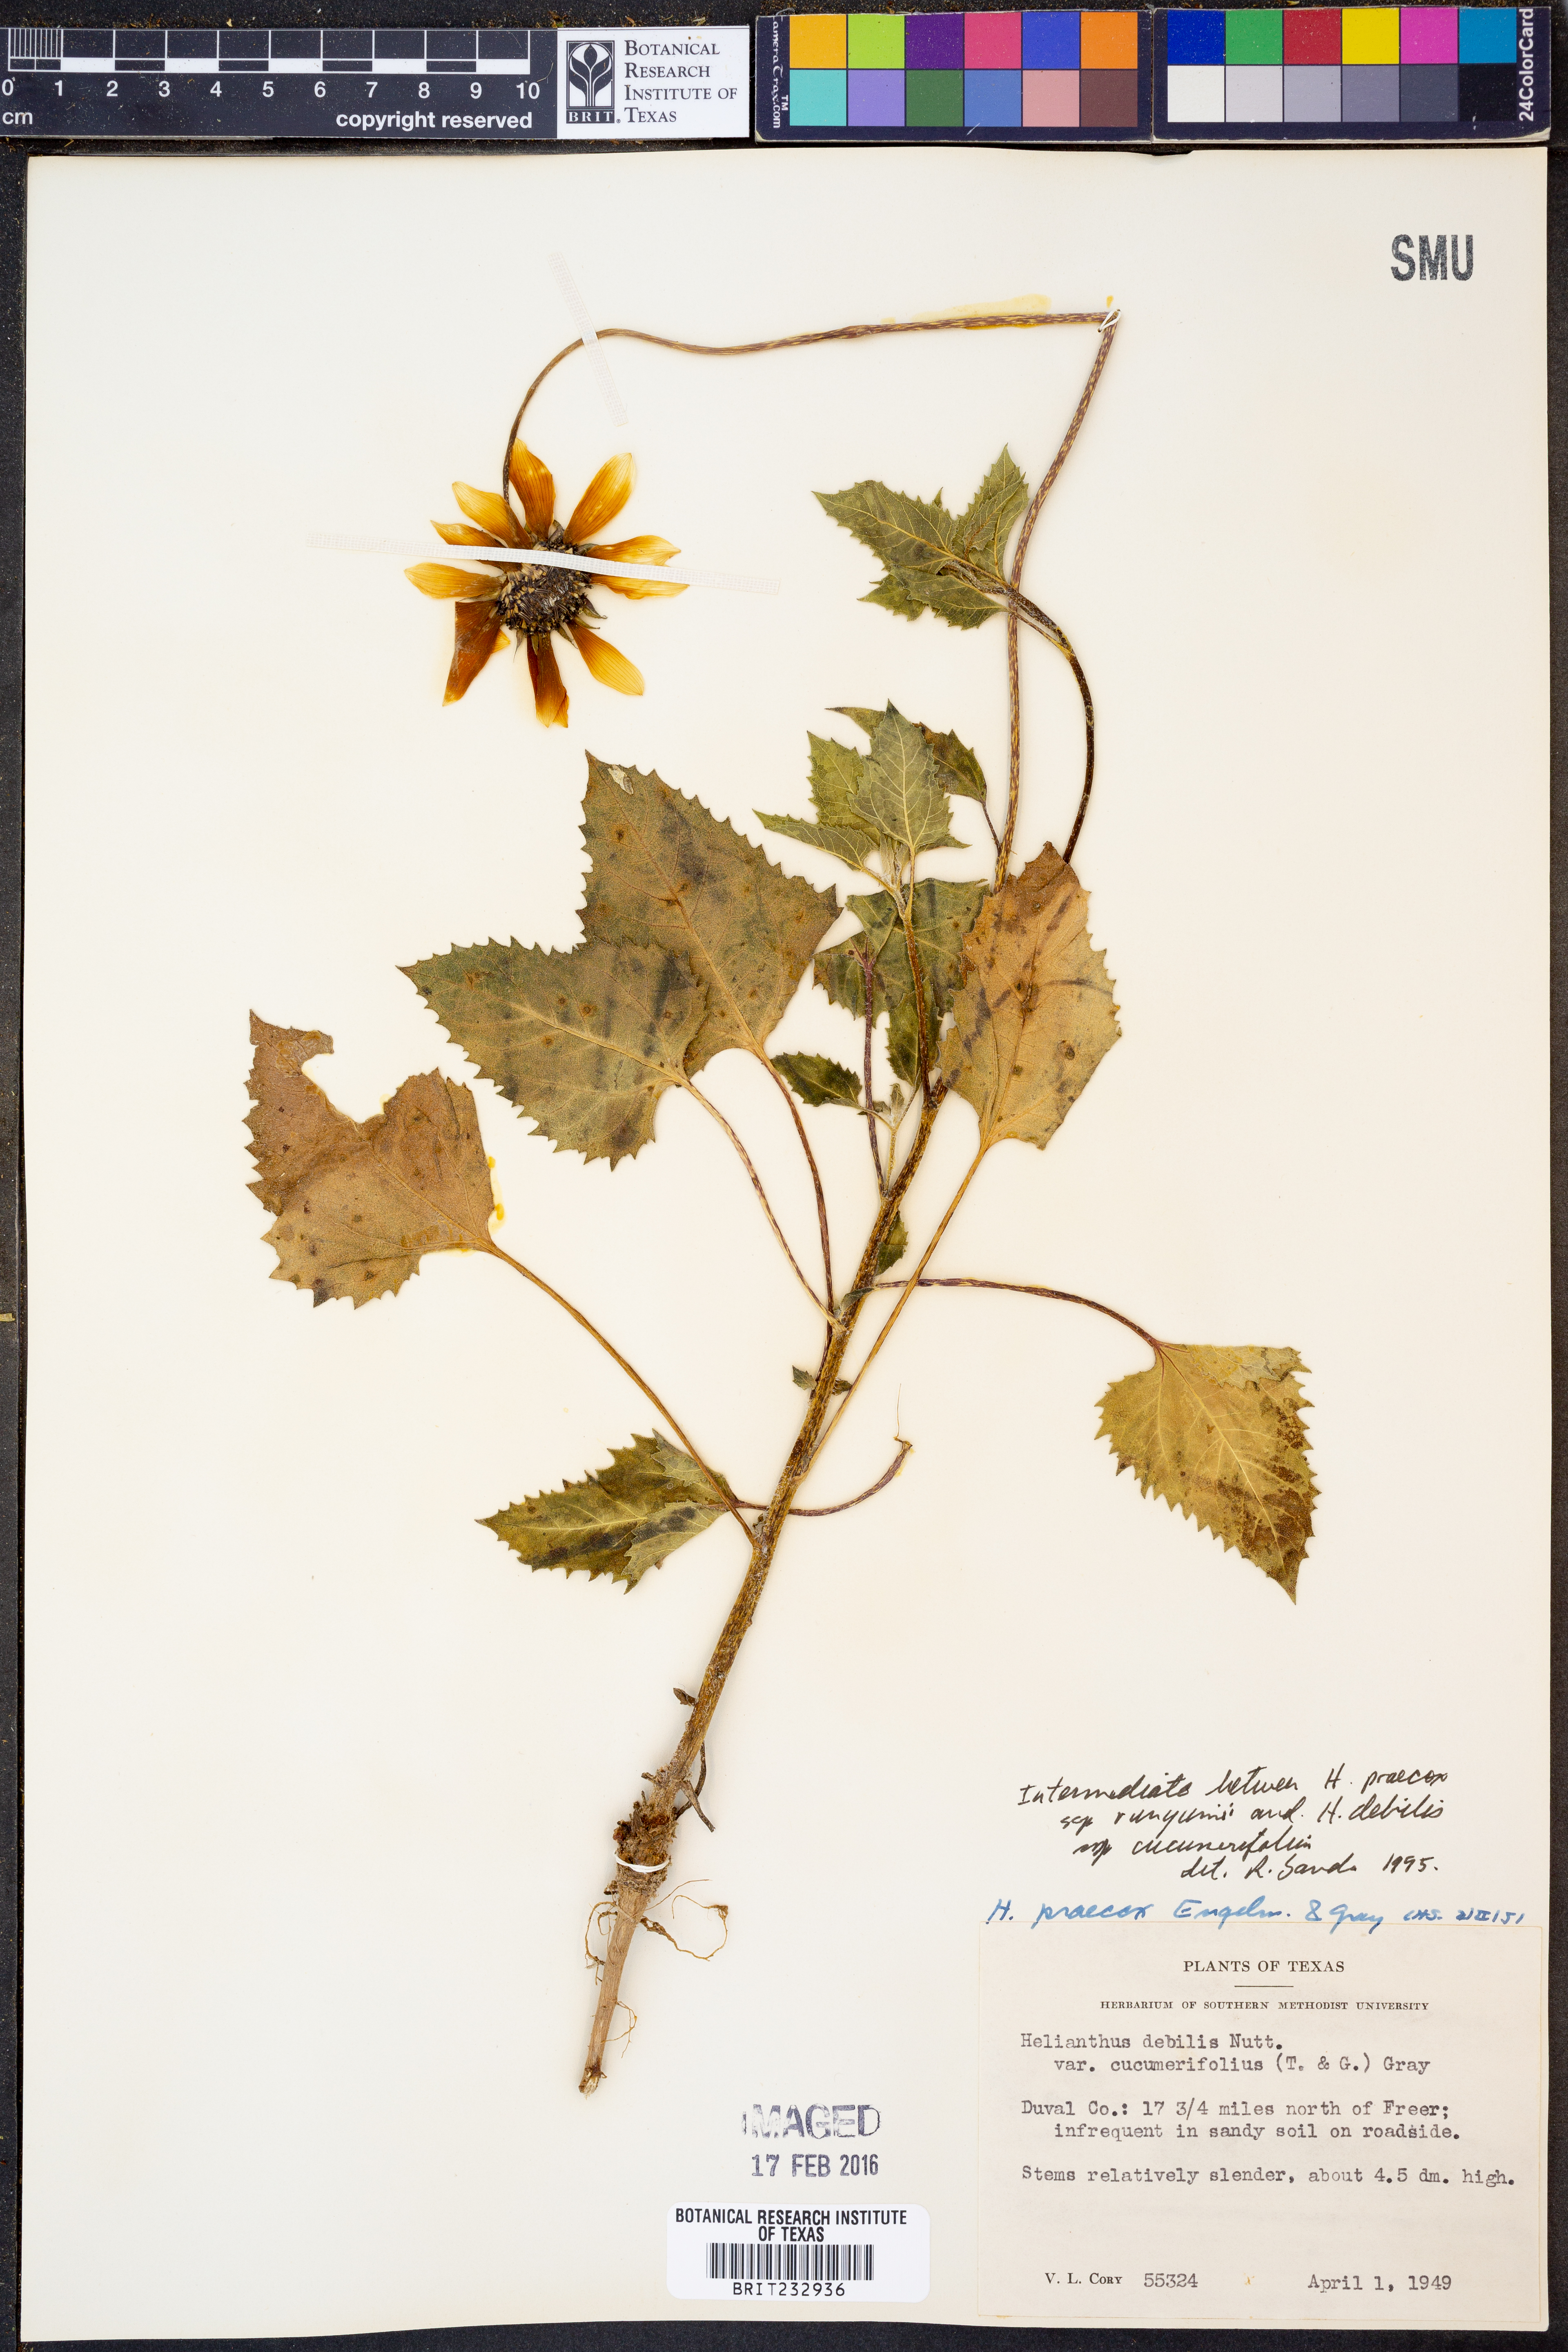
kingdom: Plantae
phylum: Tracheophyta
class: Magnoliopsida
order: Asterales
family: Asteraceae
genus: Helianthus
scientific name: Helianthus praecox
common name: Texas sunflower
